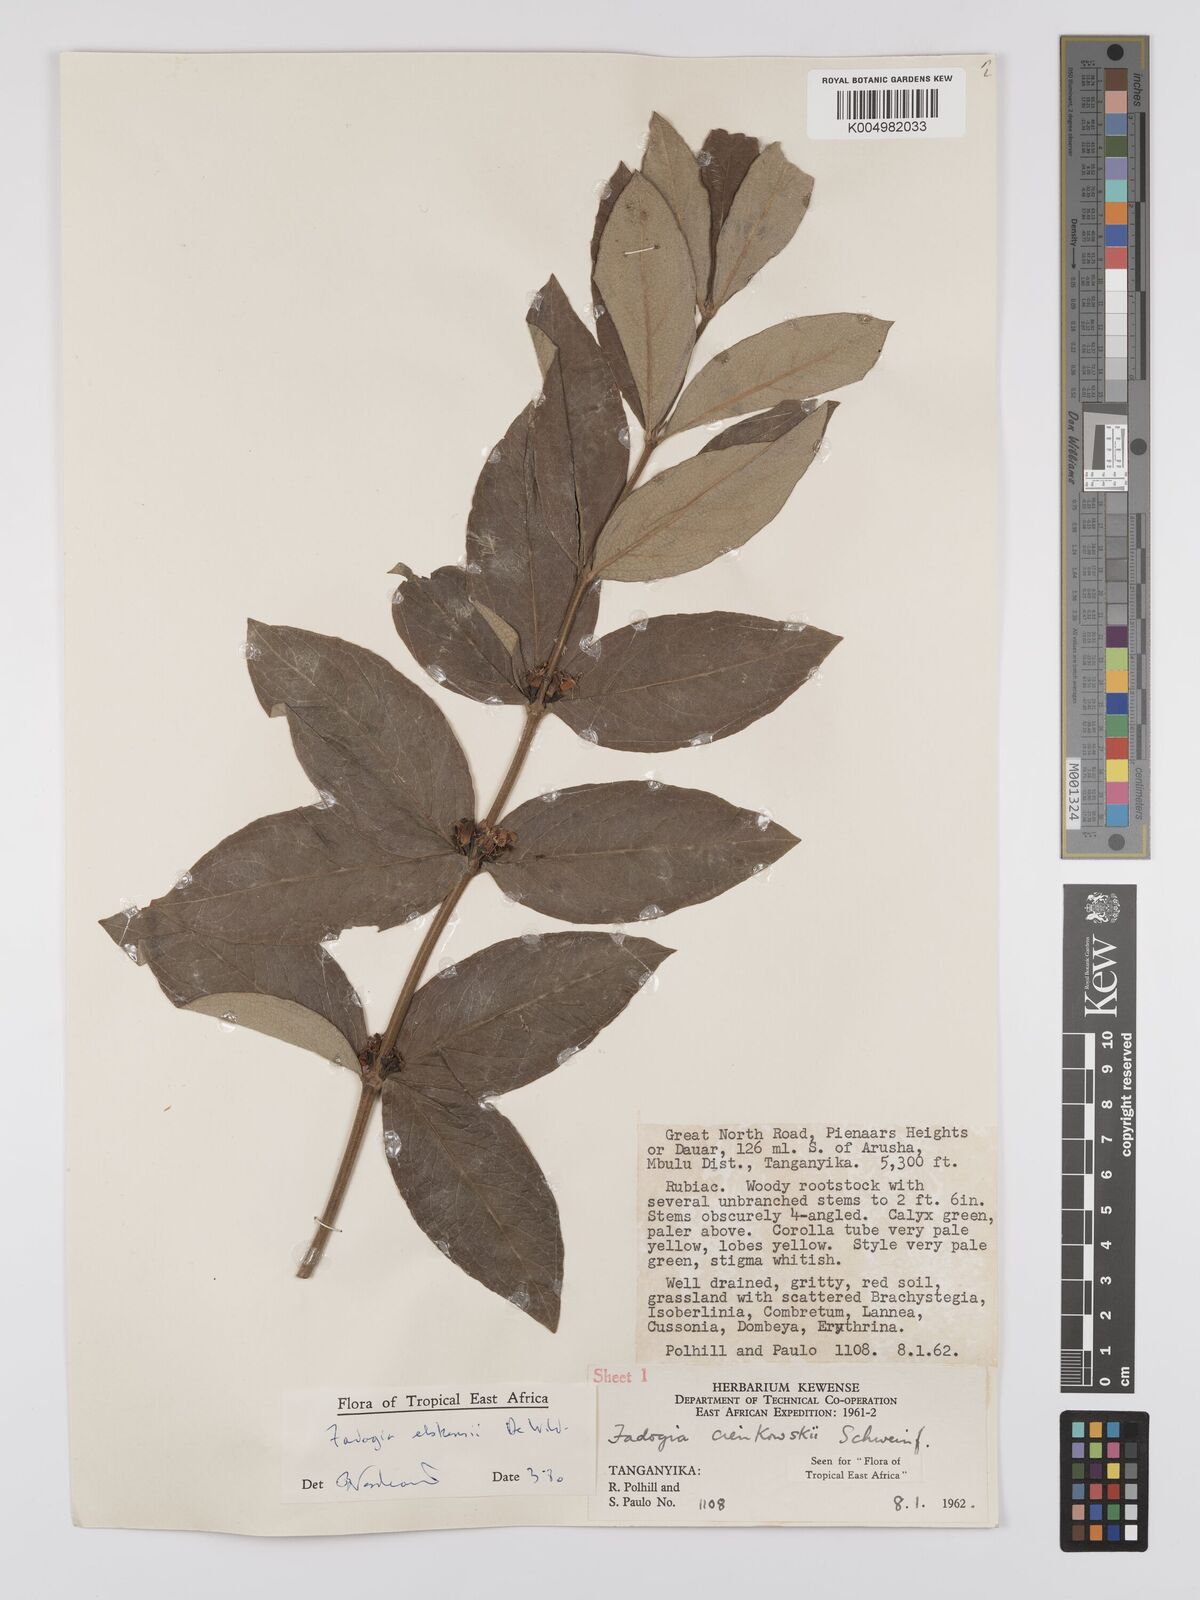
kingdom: Plantae
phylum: Tracheophyta
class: Magnoliopsida
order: Gentianales
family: Rubiaceae
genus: Fadogia
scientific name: Fadogia elskensii
